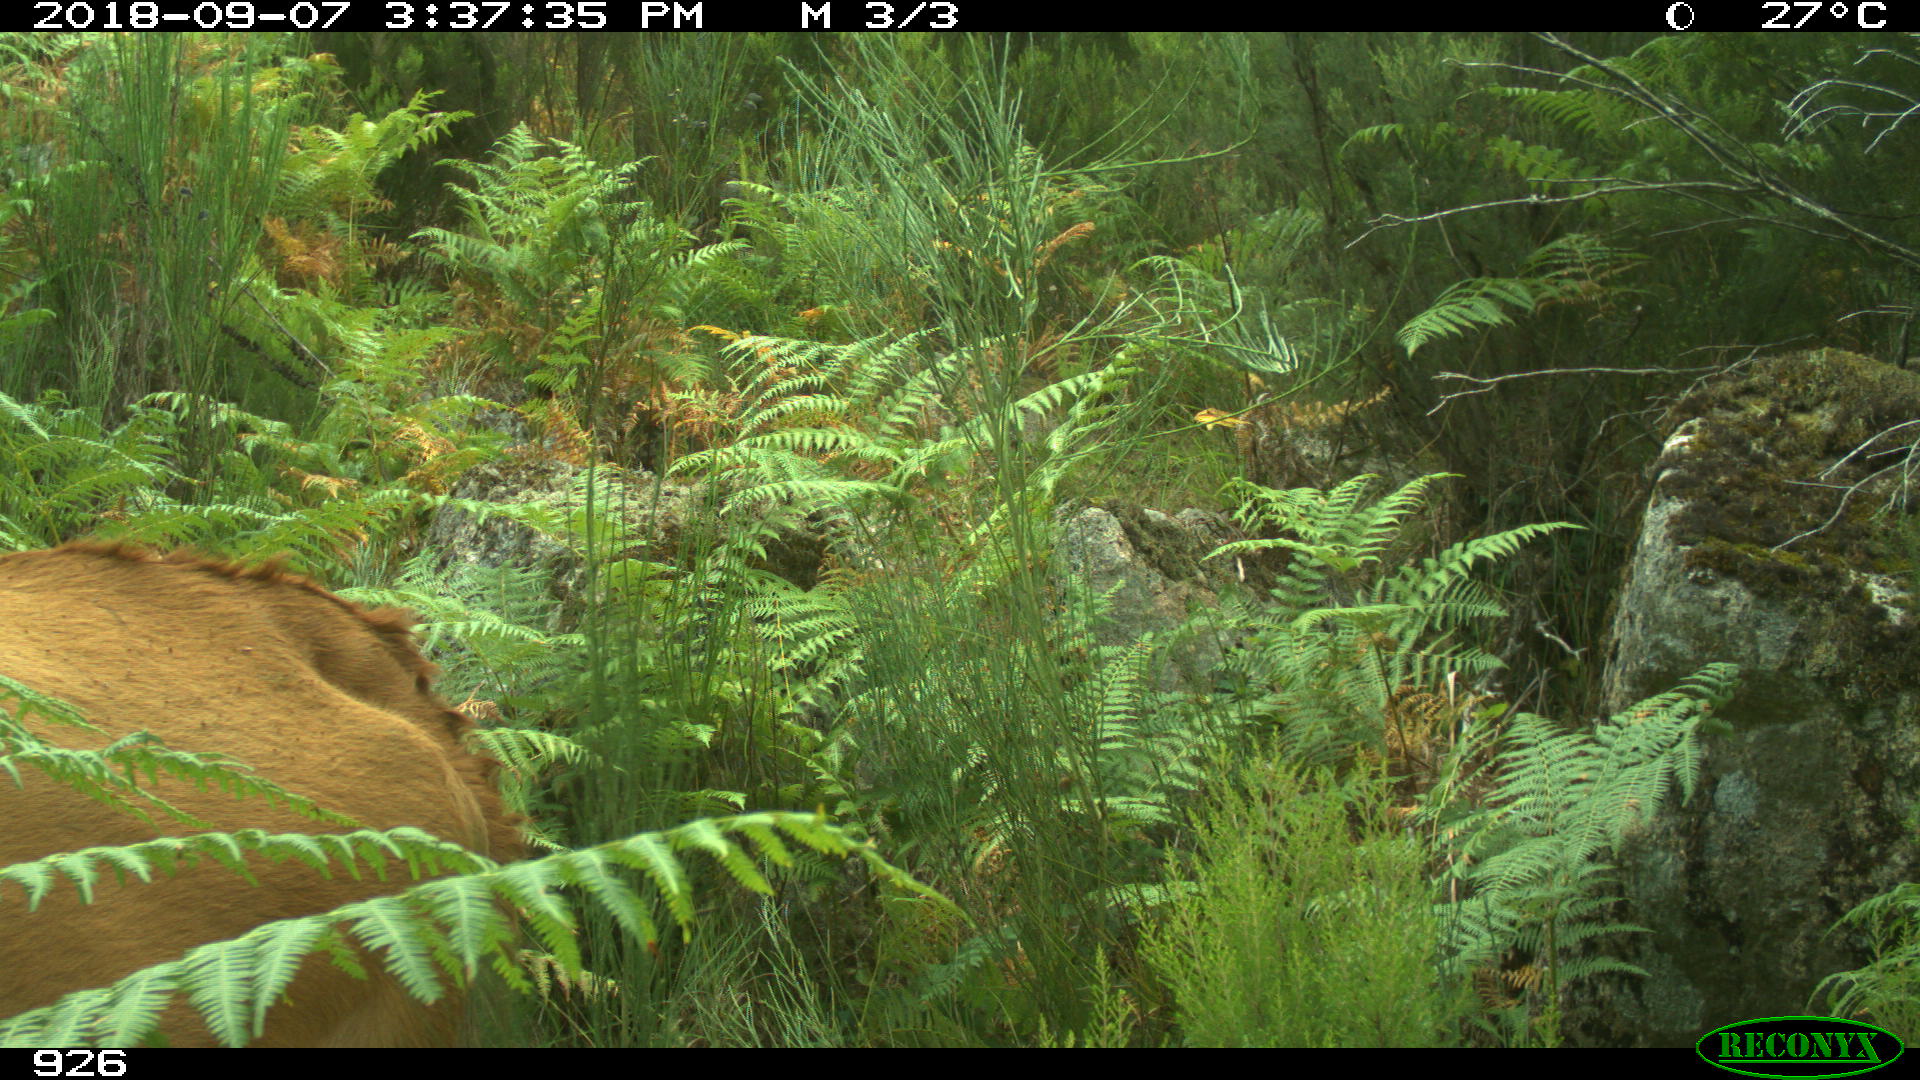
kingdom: Animalia
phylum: Chordata
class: Mammalia
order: Artiodactyla
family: Bovidae
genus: Bos
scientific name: Bos taurus
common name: Domesticated cattle
